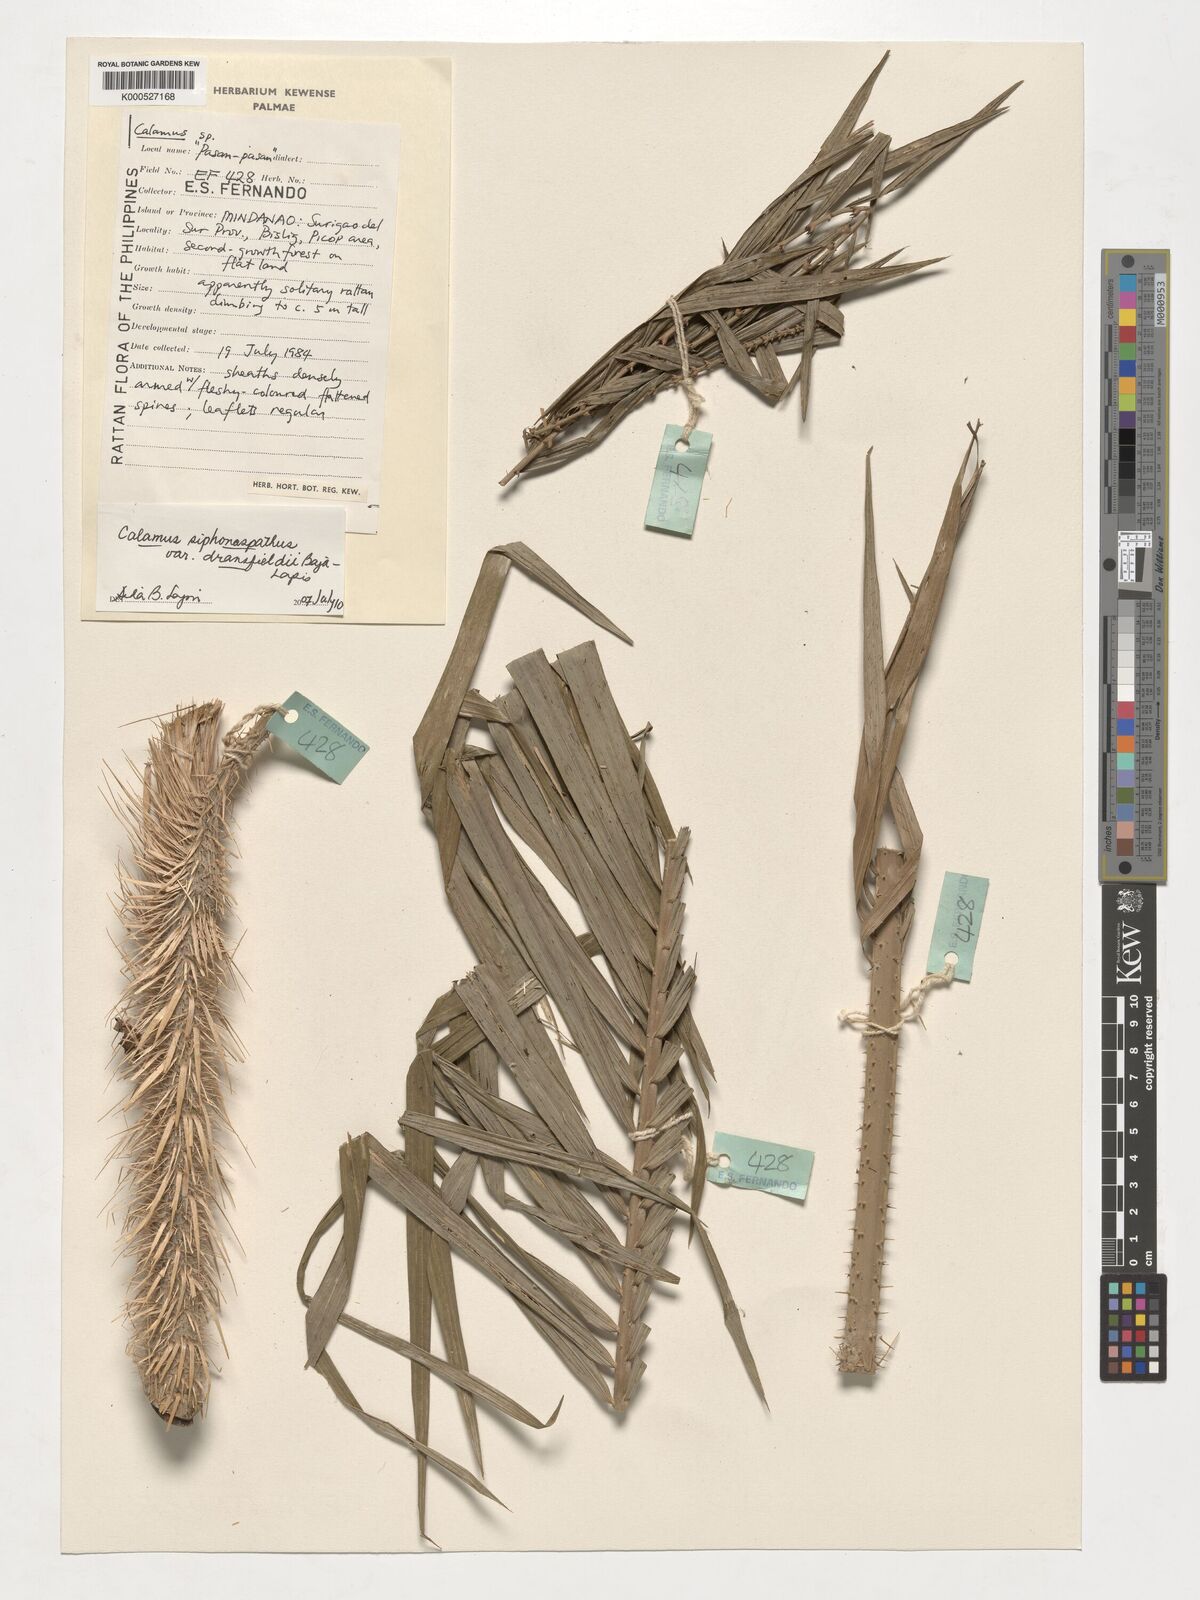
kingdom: Plantae
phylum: Tracheophyta
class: Liliopsida
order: Arecales
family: Arecaceae
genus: Calamus
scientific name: Calamus siphonospathus
